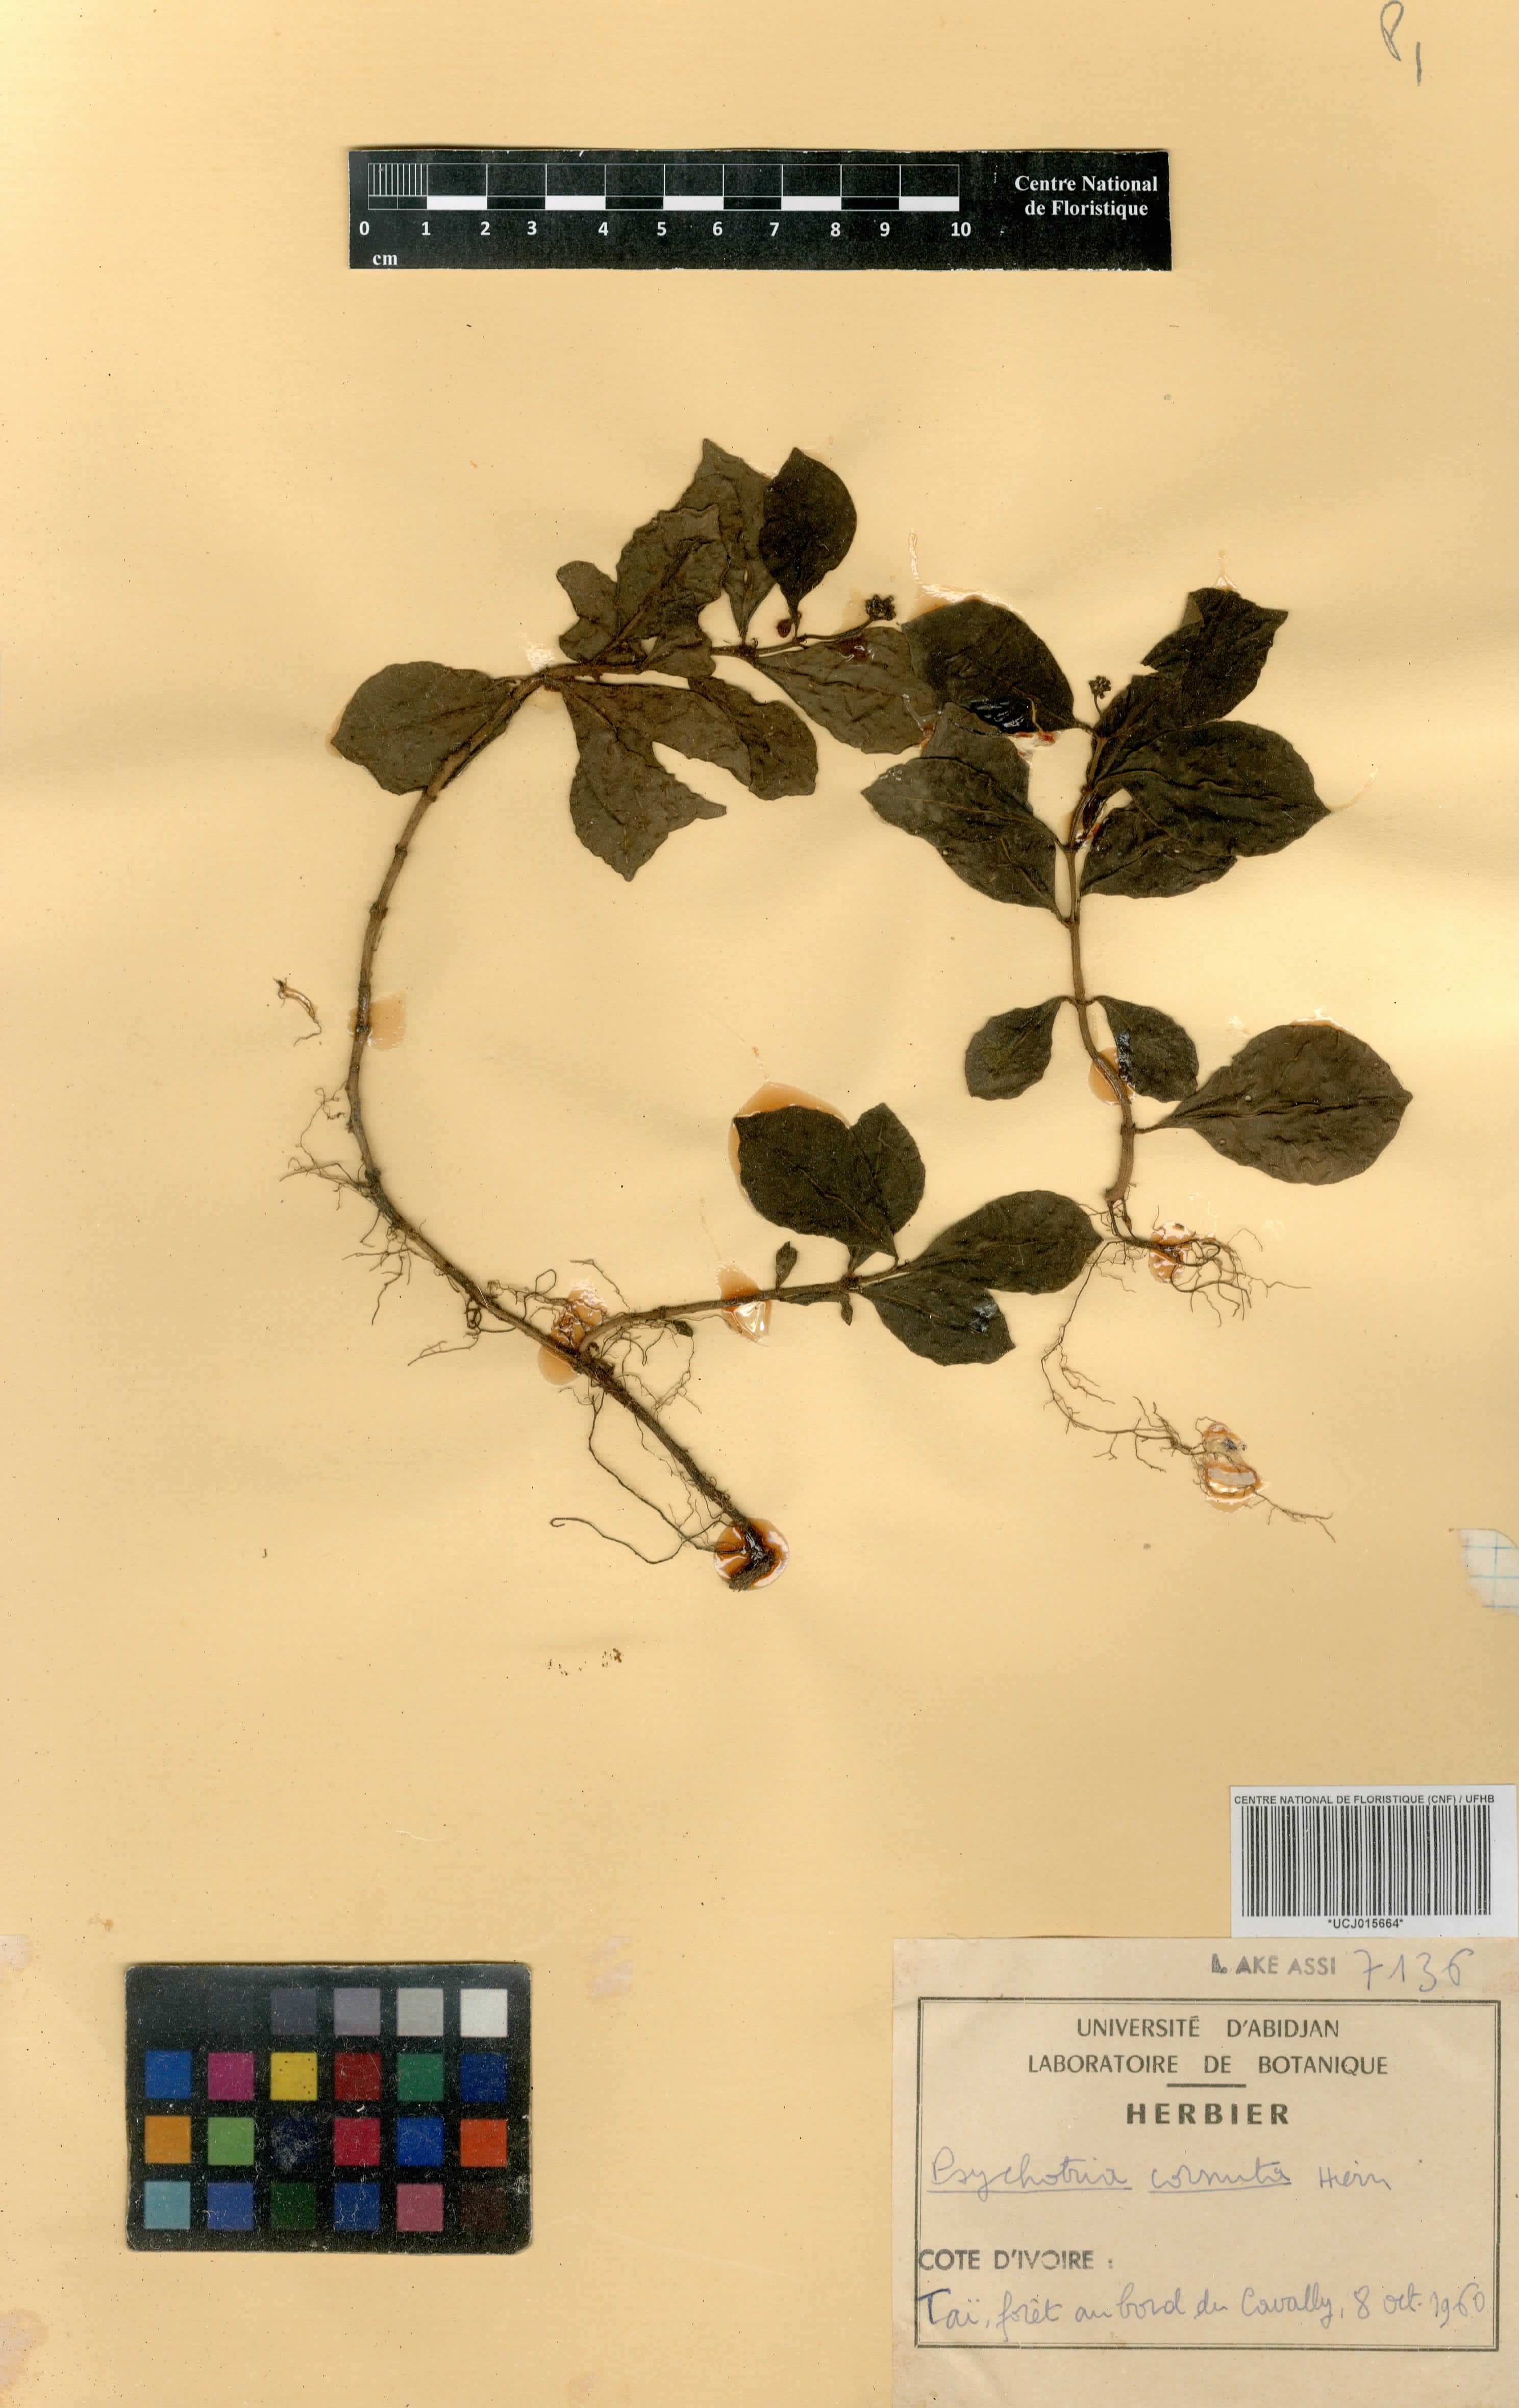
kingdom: Plantae
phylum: Tracheophyta
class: Magnoliopsida
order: Gentianales
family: Rubiaceae
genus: Psychotria
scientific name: Psychotria cornuta
